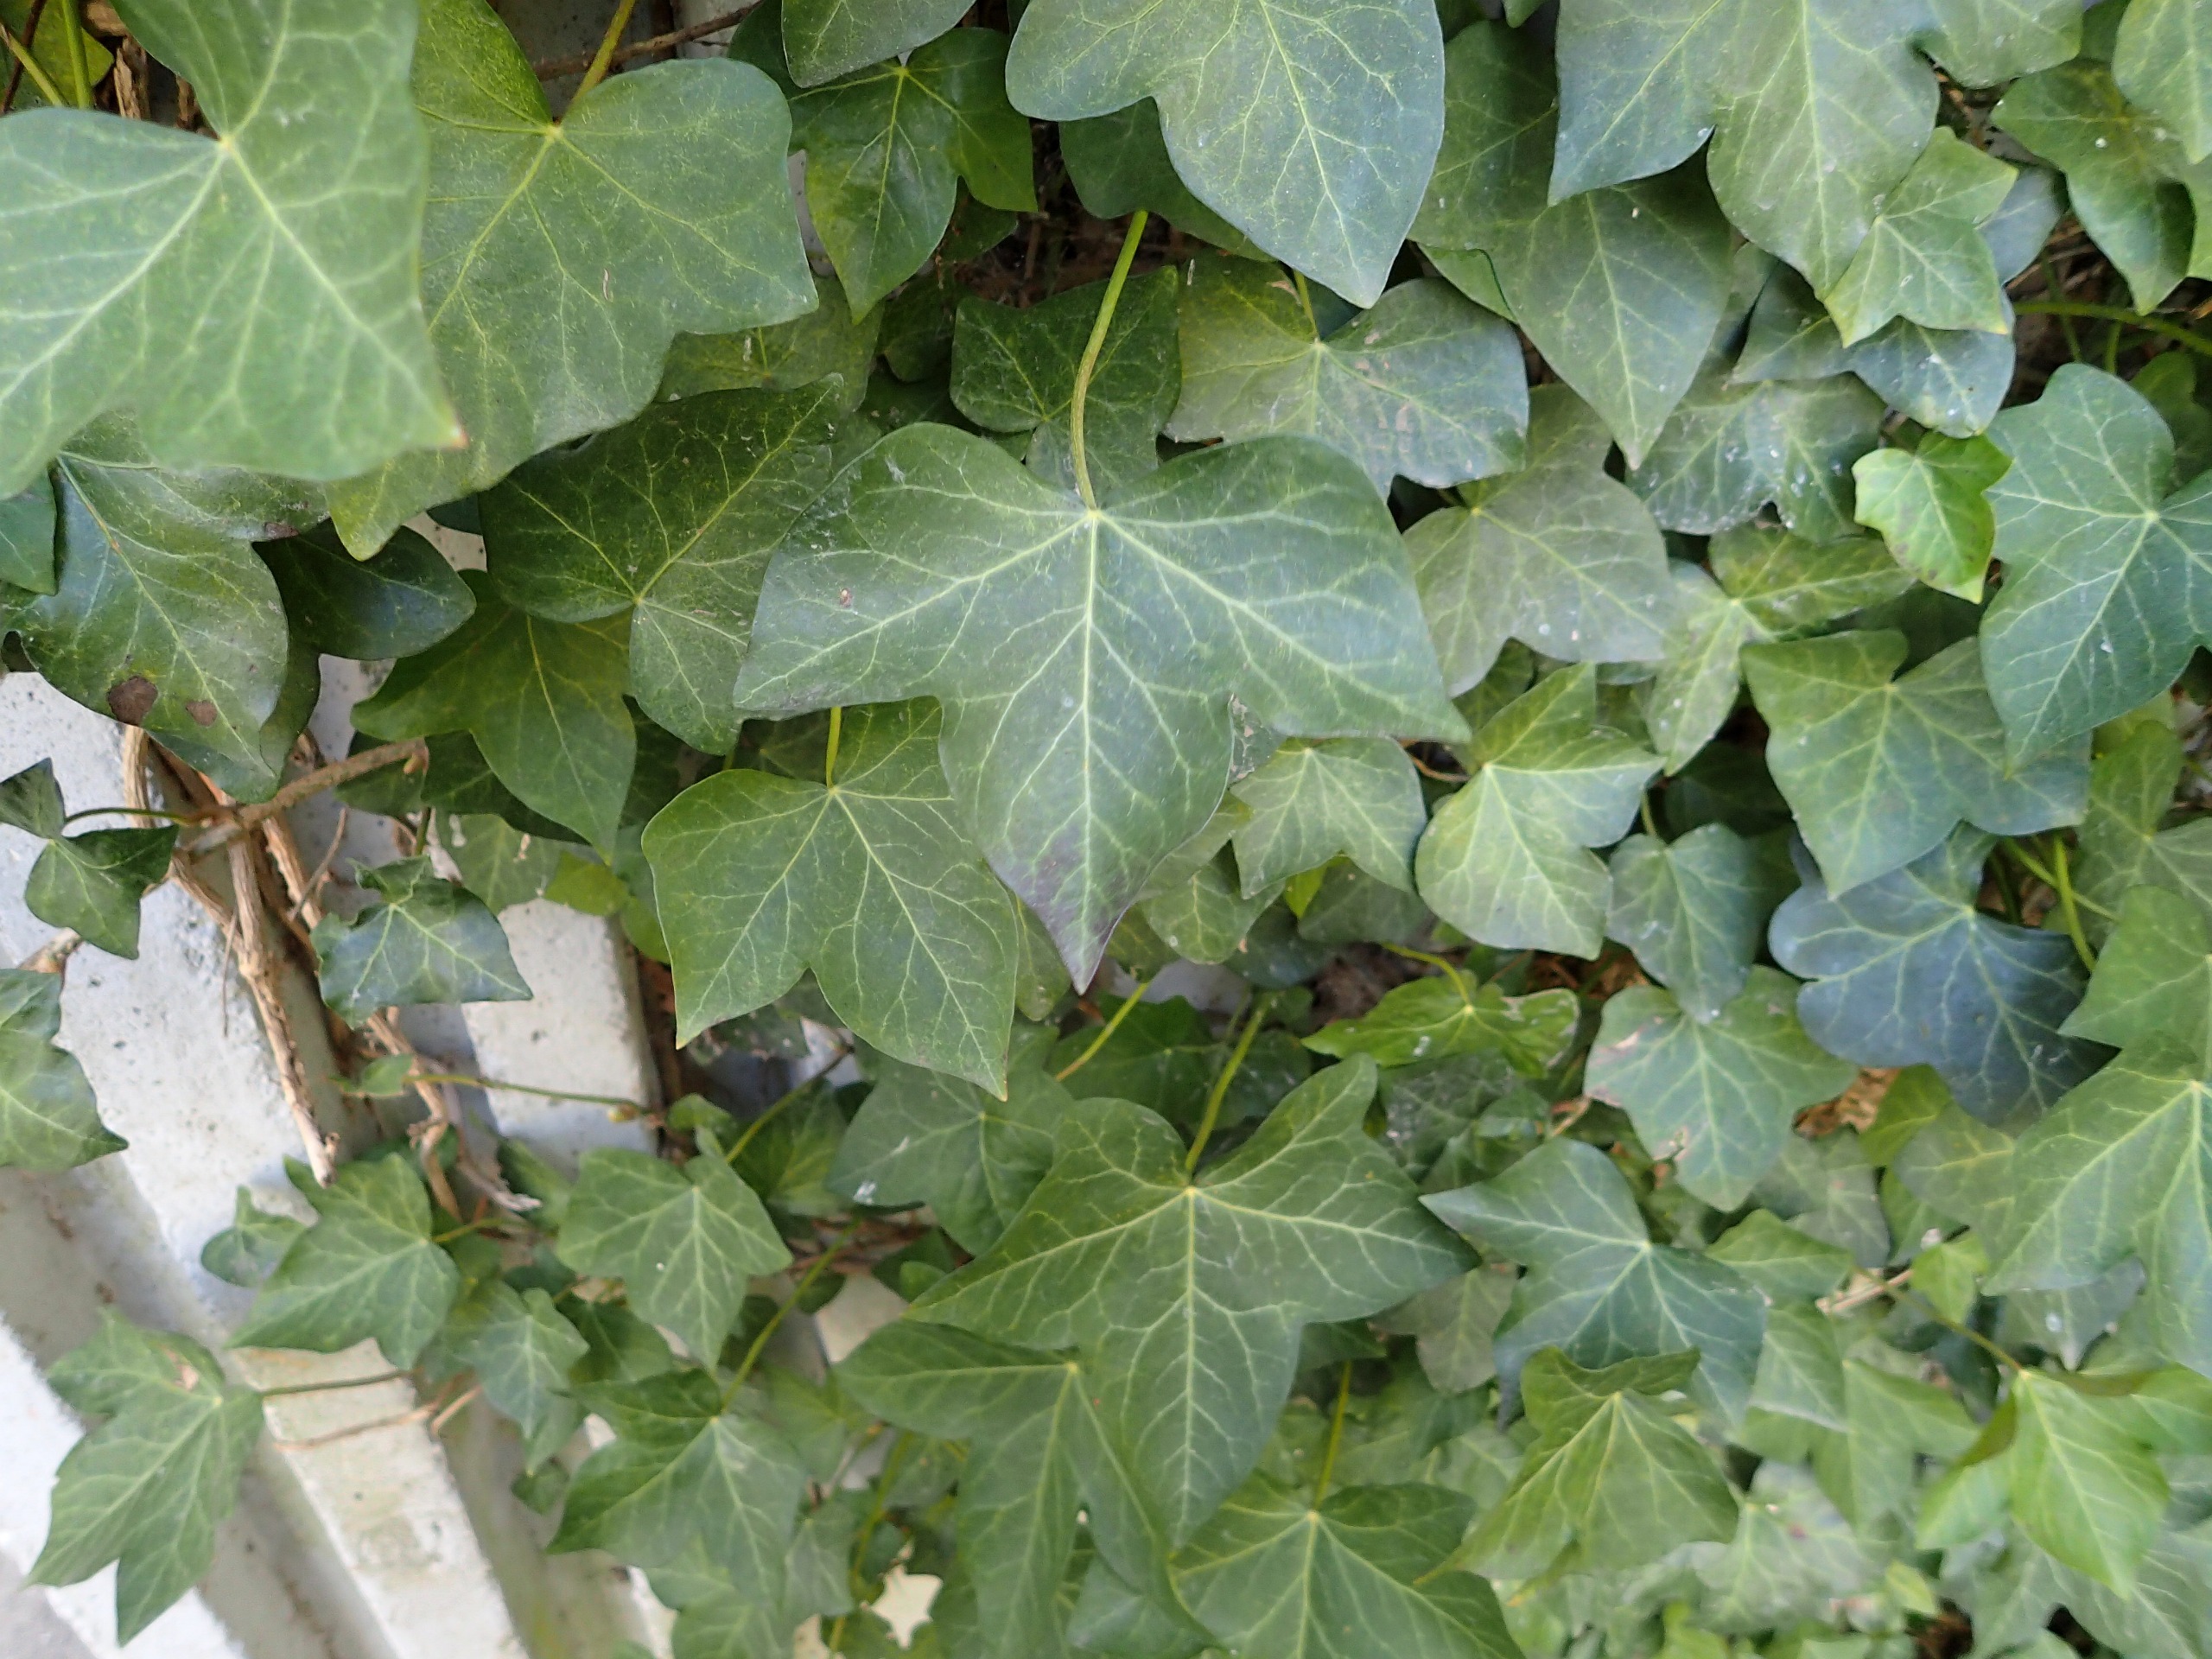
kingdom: Plantae
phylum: Tracheophyta
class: Magnoliopsida
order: Apiales
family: Araliaceae
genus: Hedera
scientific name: Hedera hibernica
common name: Irsk vedbend
